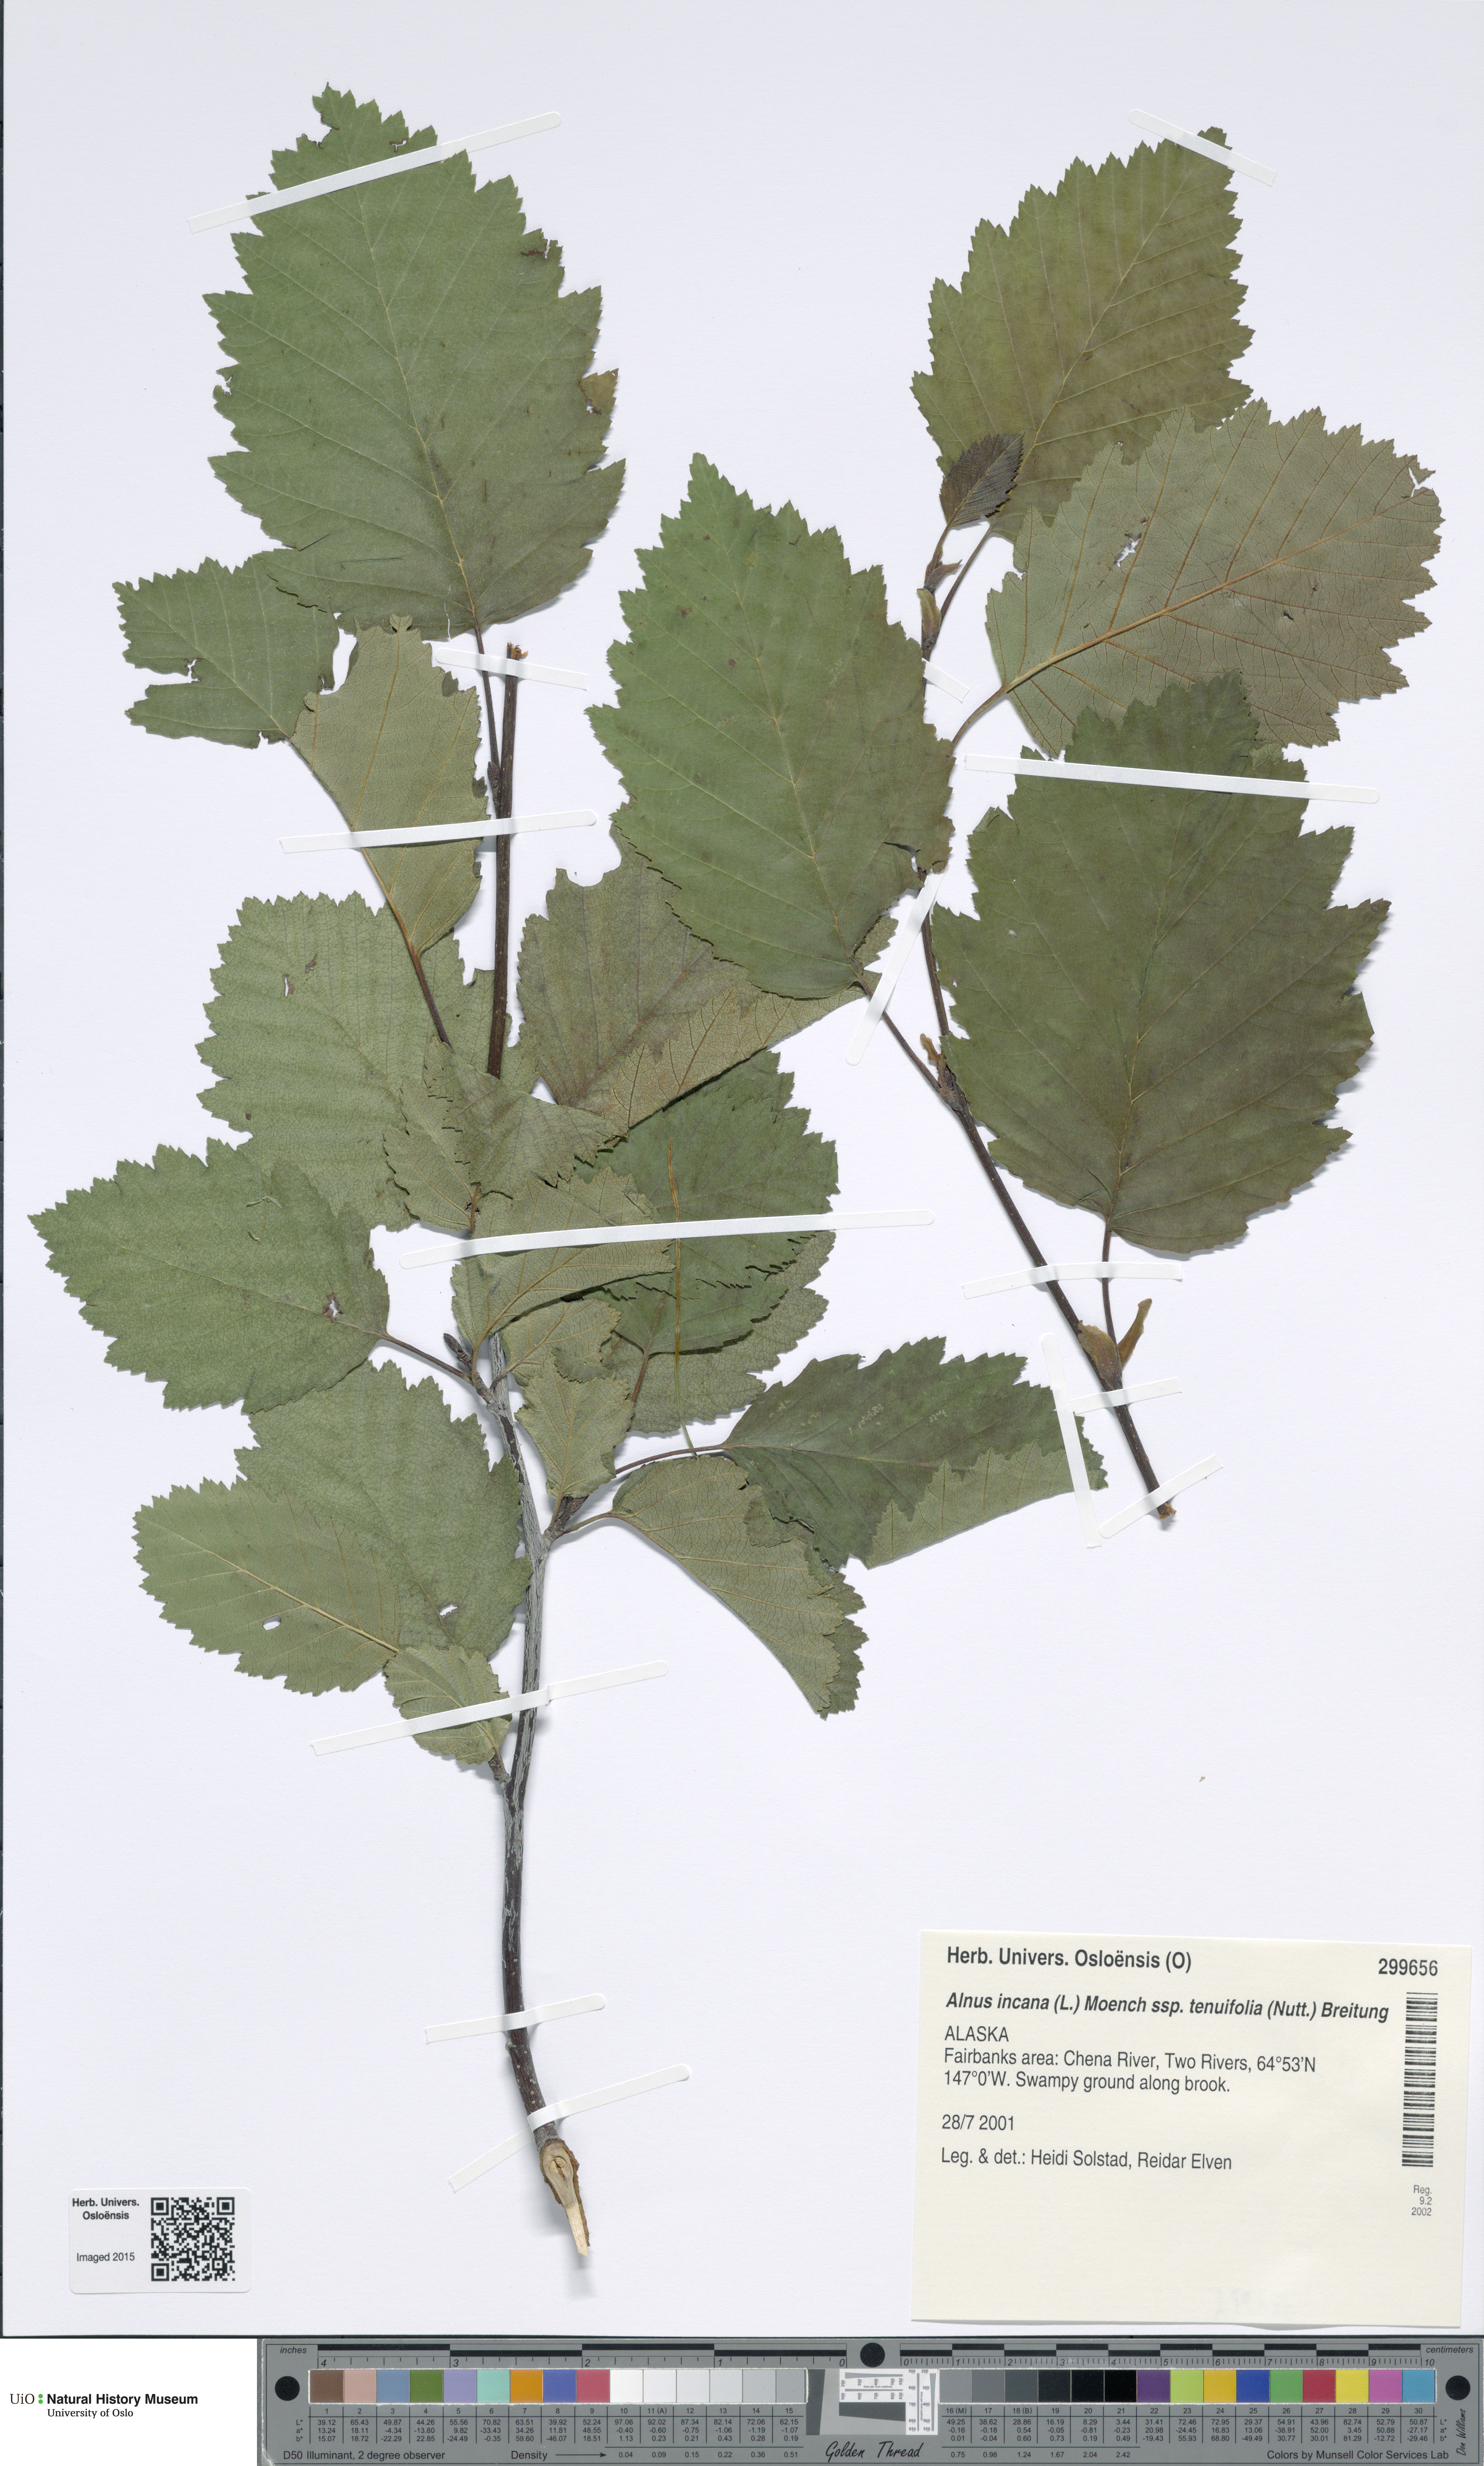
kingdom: Plantae
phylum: Tracheophyta
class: Magnoliopsida
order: Fagales
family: Betulaceae
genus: Alnus
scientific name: Alnus incana
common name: Grey alder
